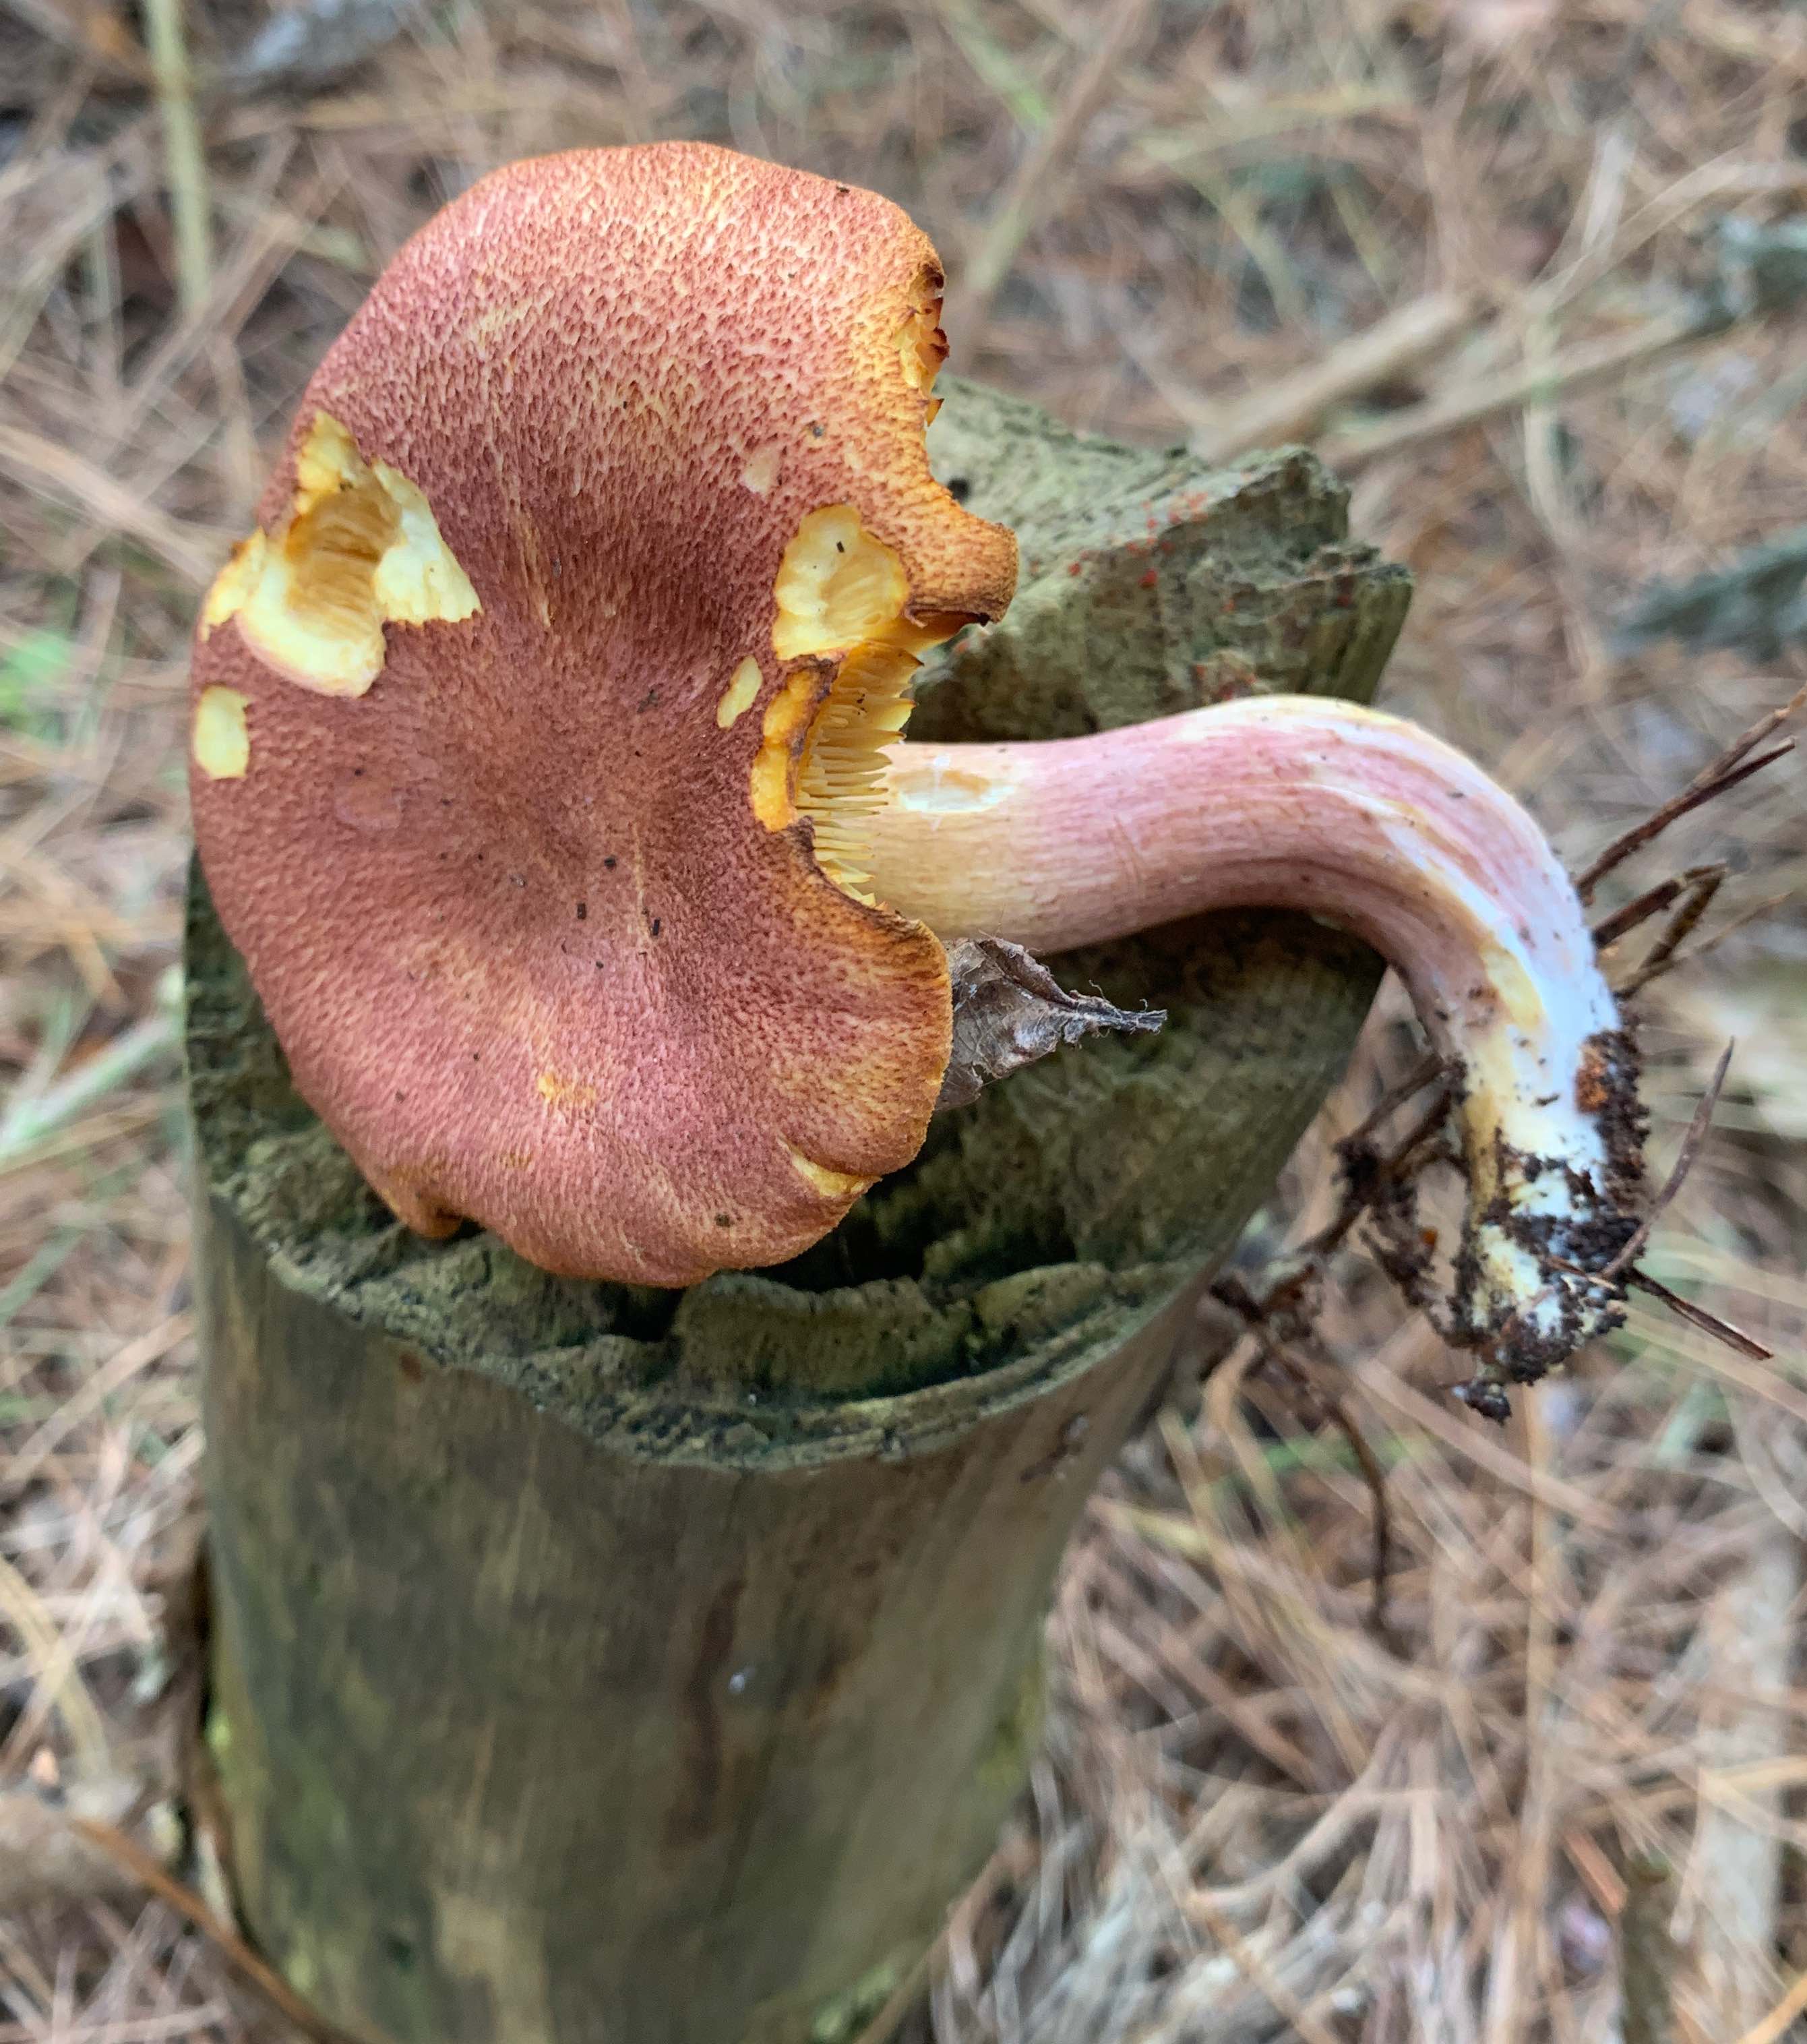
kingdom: Fungi
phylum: Basidiomycota
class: Agaricomycetes
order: Agaricales
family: Tricholomataceae
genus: Tricholomopsis
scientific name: Tricholomopsis rutilans
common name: purpur-væbnerhat
